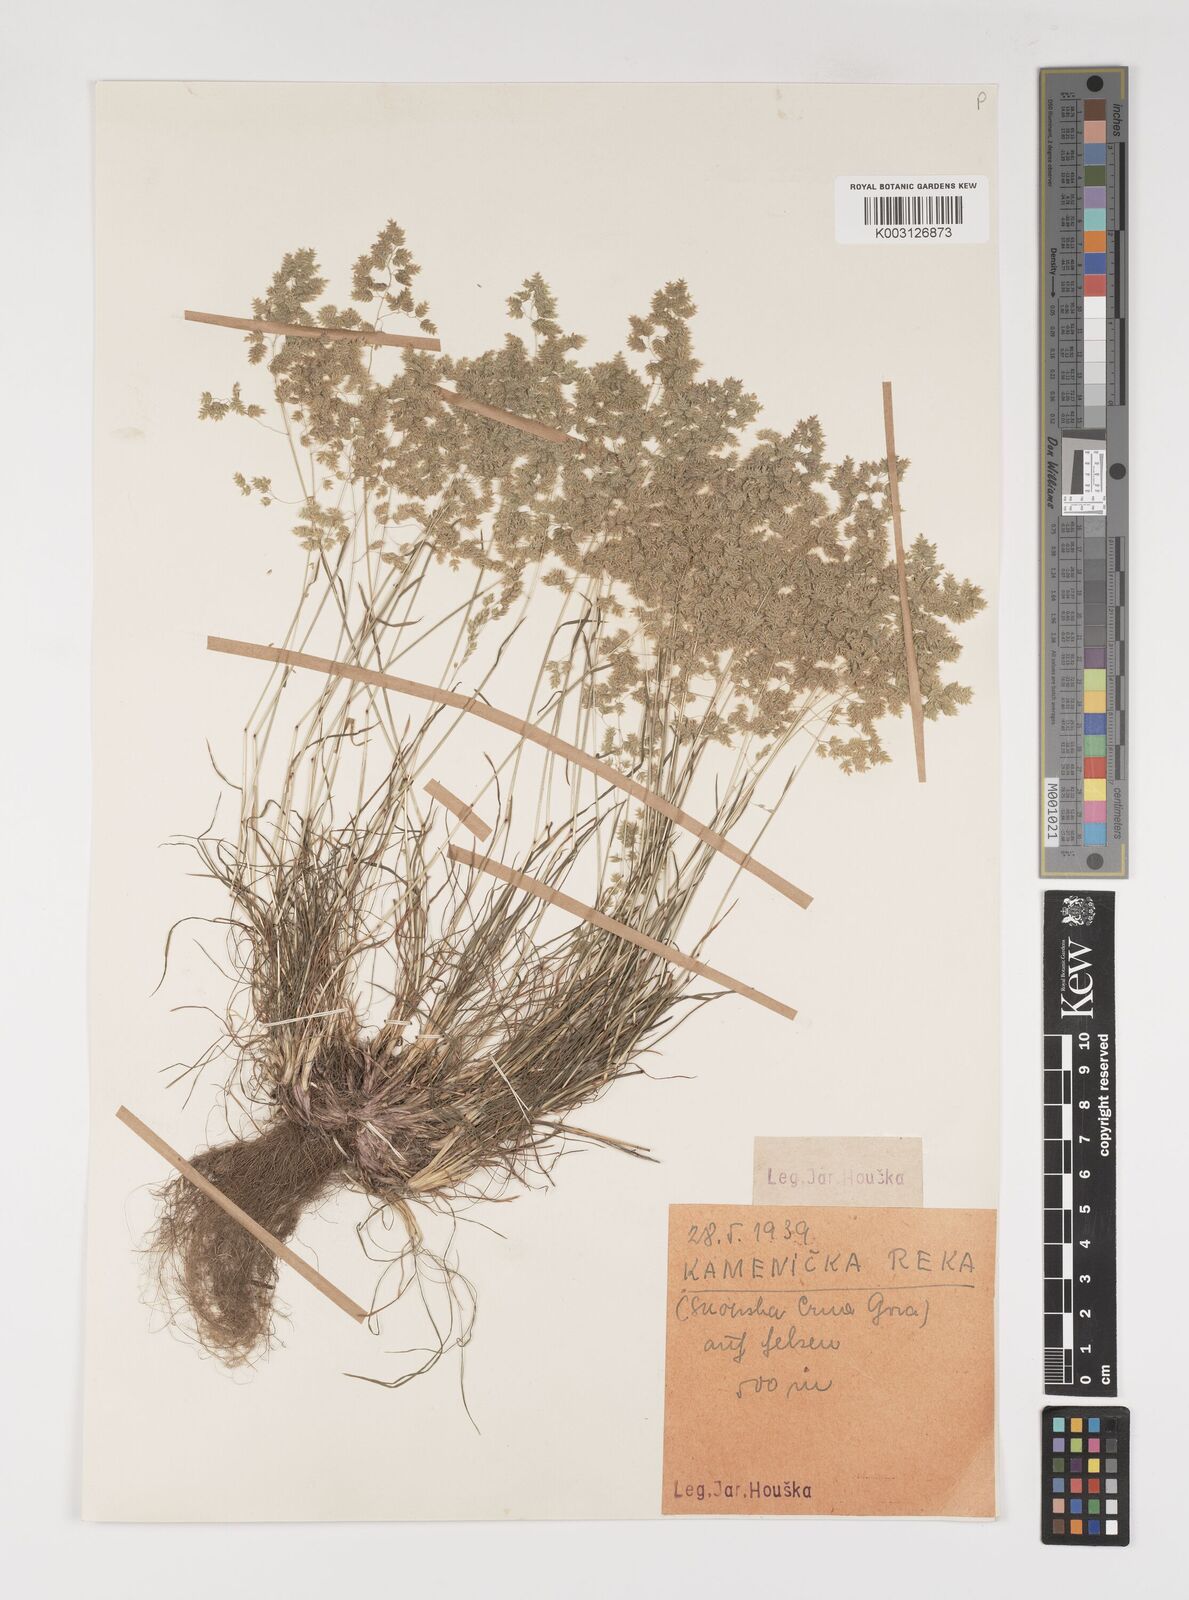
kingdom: Plantae
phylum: Tracheophyta
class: Liliopsida
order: Poales
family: Poaceae
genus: Poa
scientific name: Poa bulbosa
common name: Bulbous bluegrass
